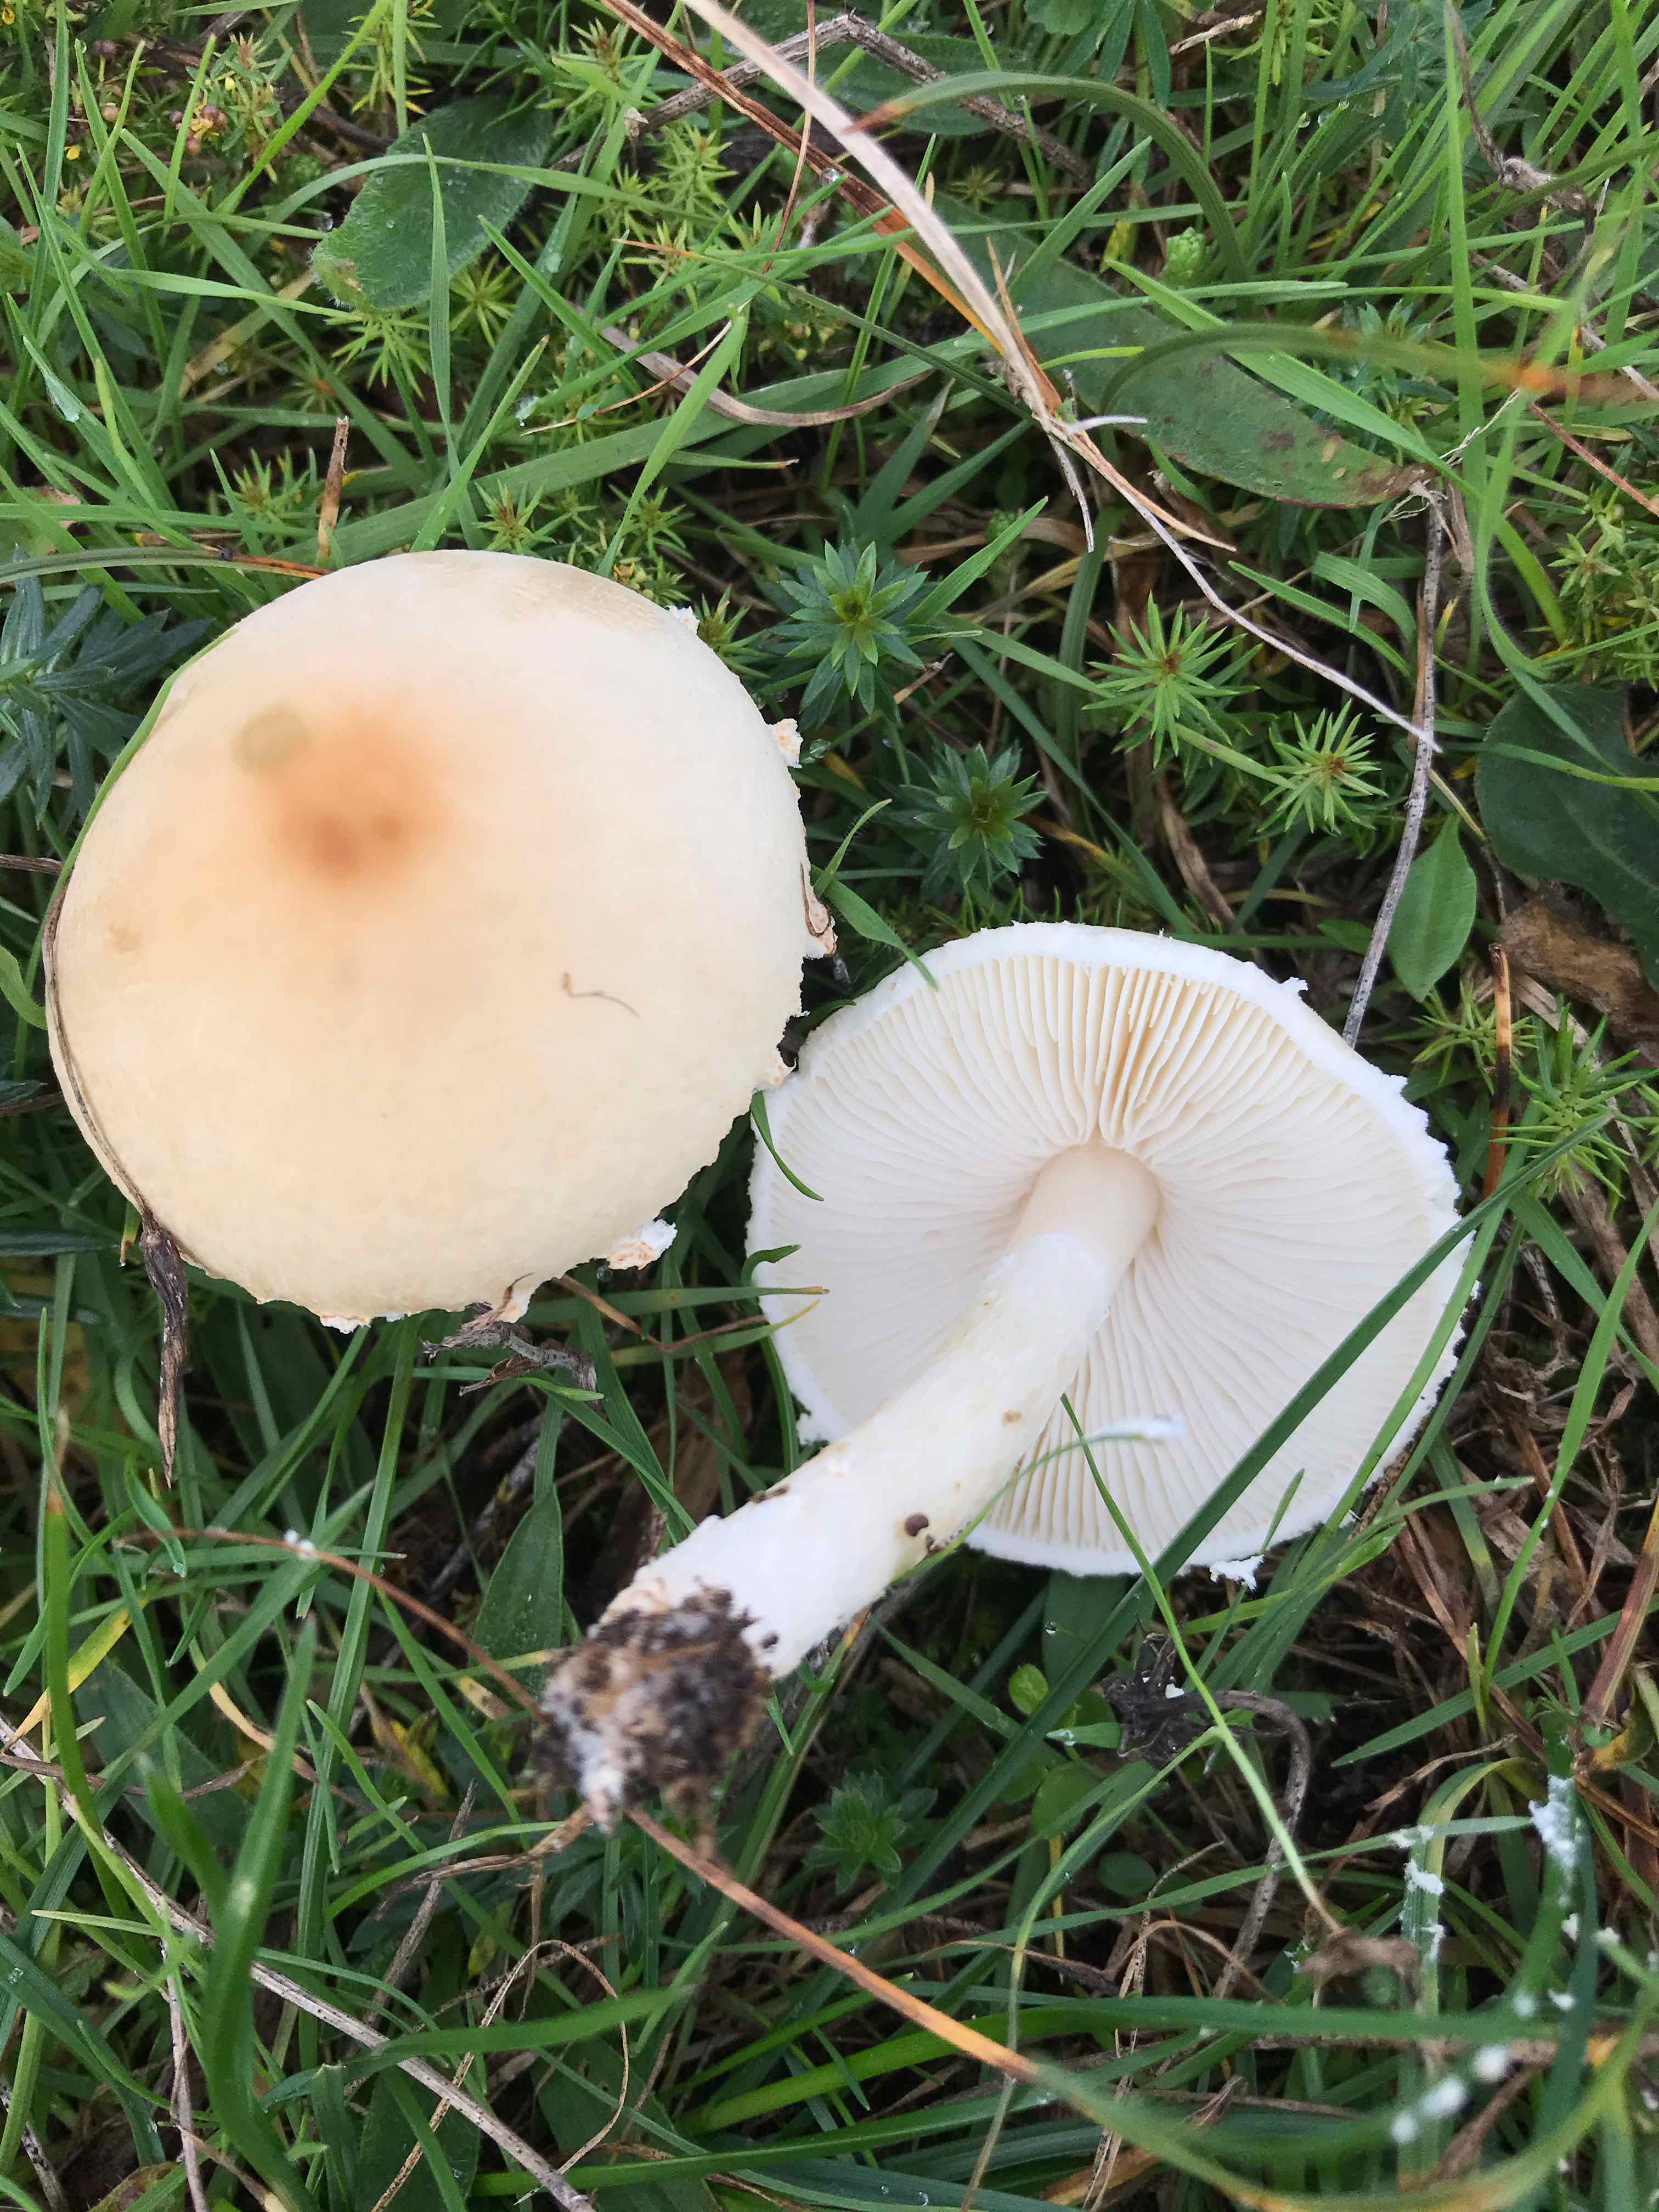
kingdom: Fungi
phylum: Basidiomycota
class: Agaricomycetes
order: Agaricales
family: Agaricaceae
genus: Lepiota
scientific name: Lepiota erminea
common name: hvid parasolhat
